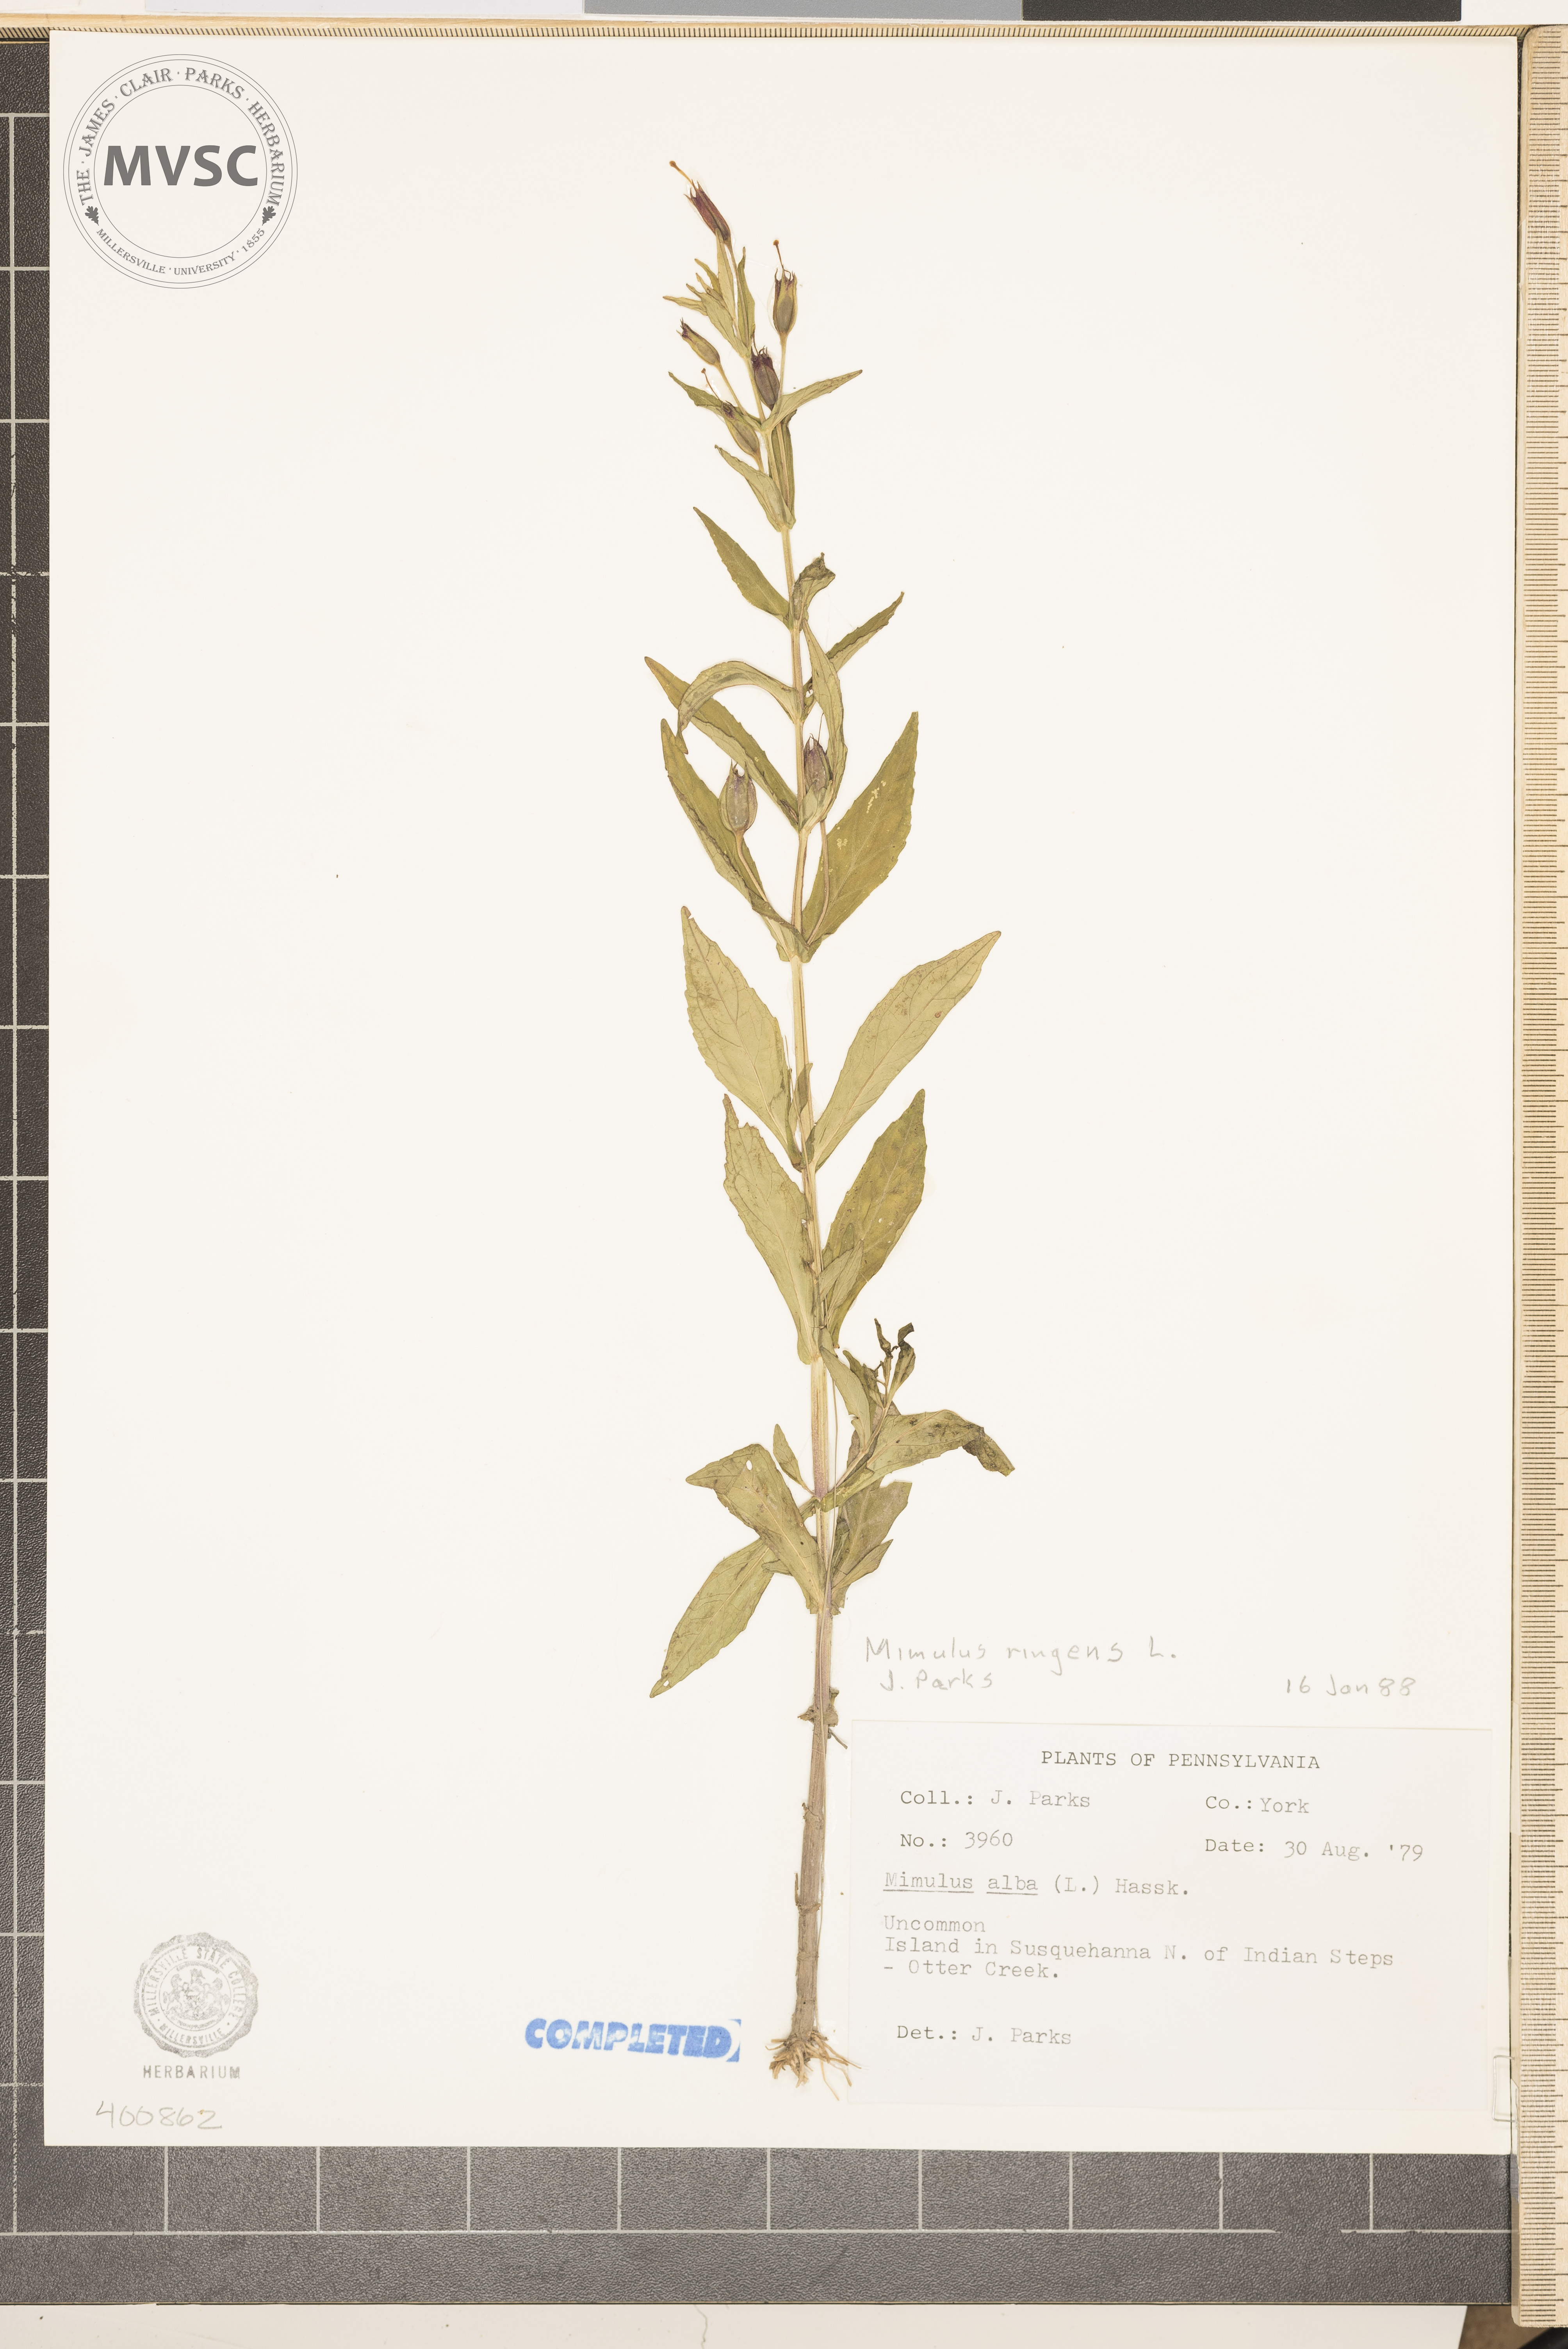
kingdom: Plantae
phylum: Tracheophyta
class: Magnoliopsida
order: Lamiales
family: Phrymaceae
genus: Mimulus
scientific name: Mimulus ringens
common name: Allegheny monkeyflower
